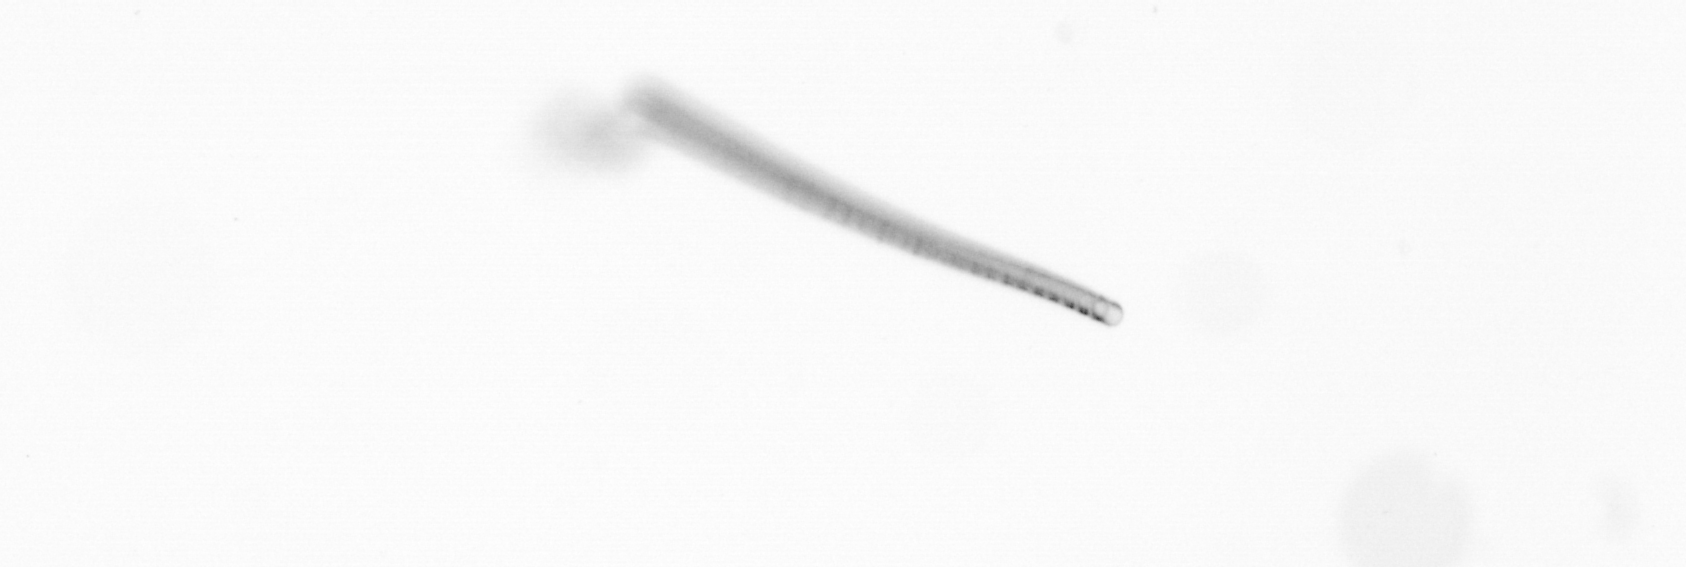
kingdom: Chromista
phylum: Ochrophyta
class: Bacillariophyceae
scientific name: Bacillariophyceae
